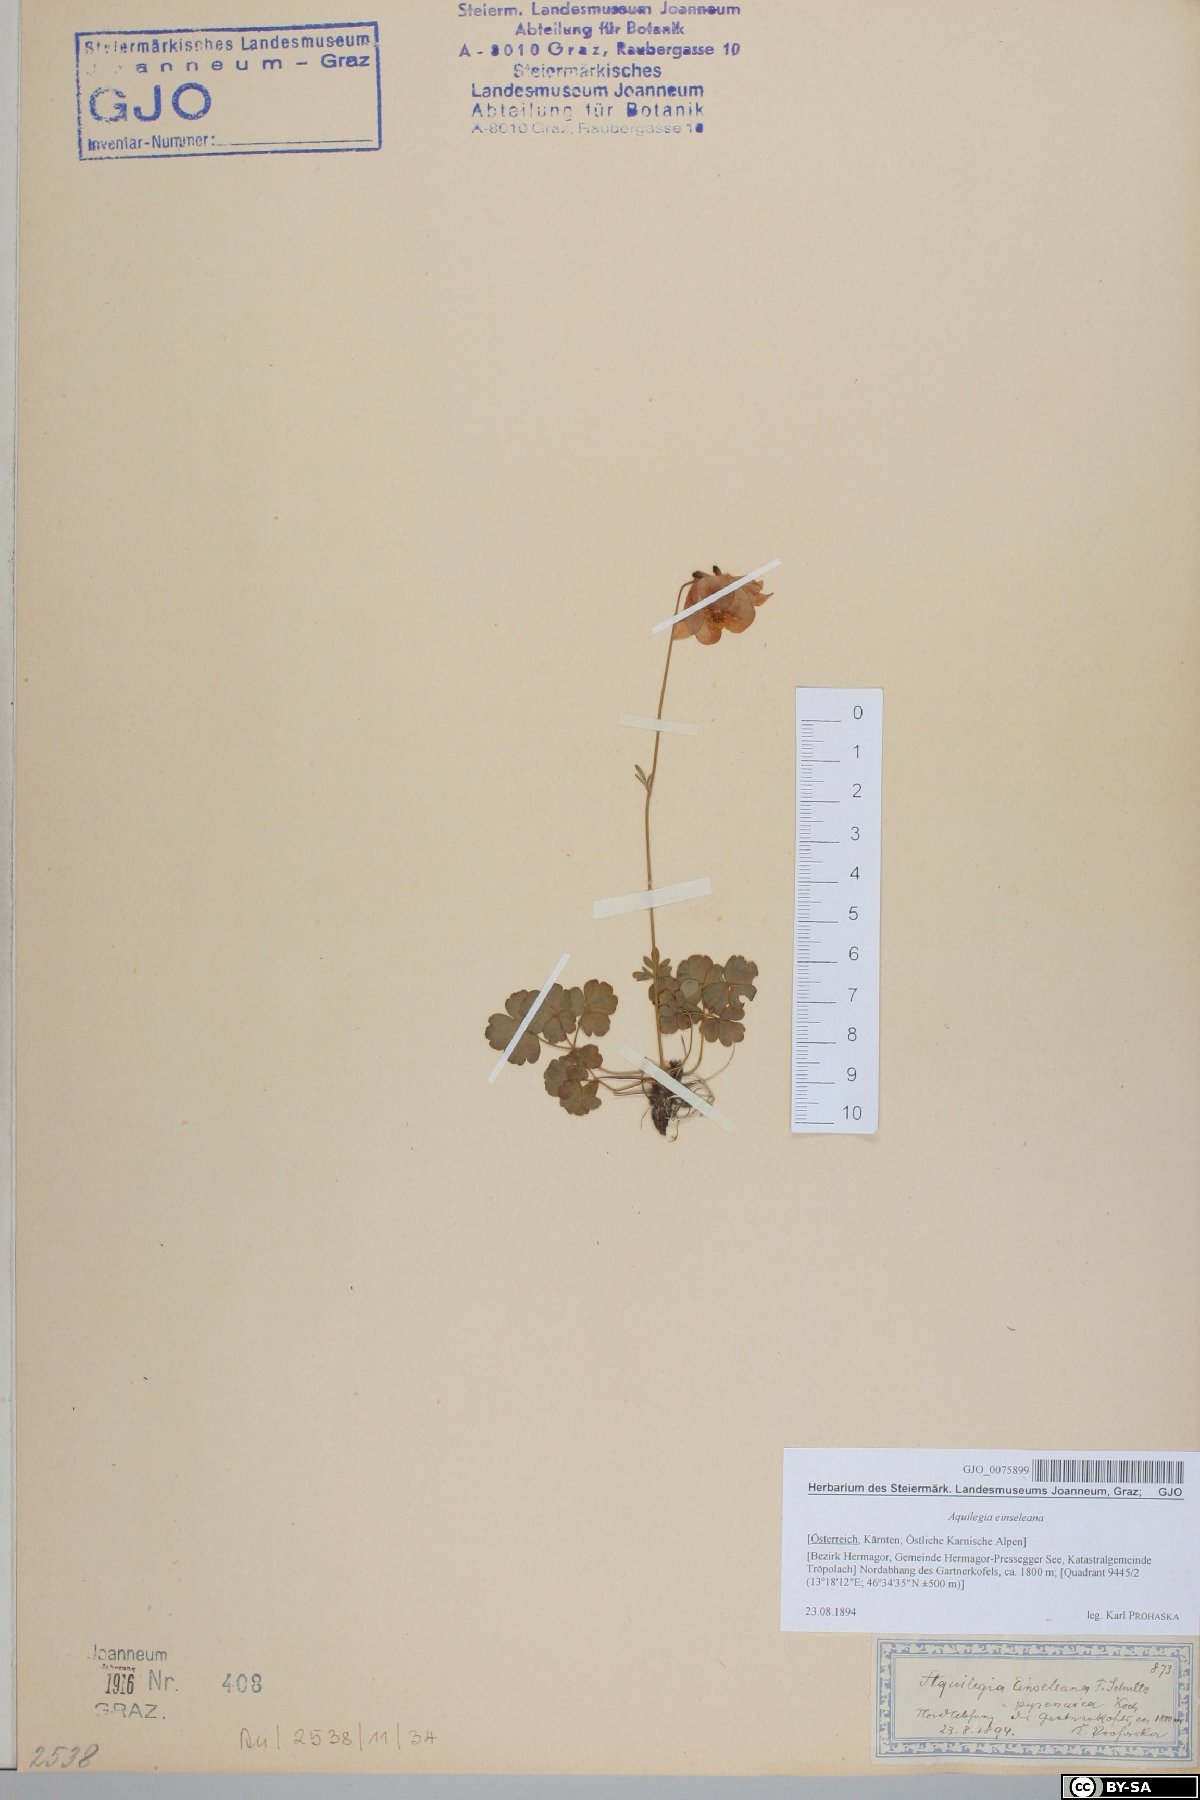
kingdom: Plantae
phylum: Tracheophyta
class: Magnoliopsida
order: Ranunculales
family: Ranunculaceae
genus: Aquilegia
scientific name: Aquilegia einseleana
